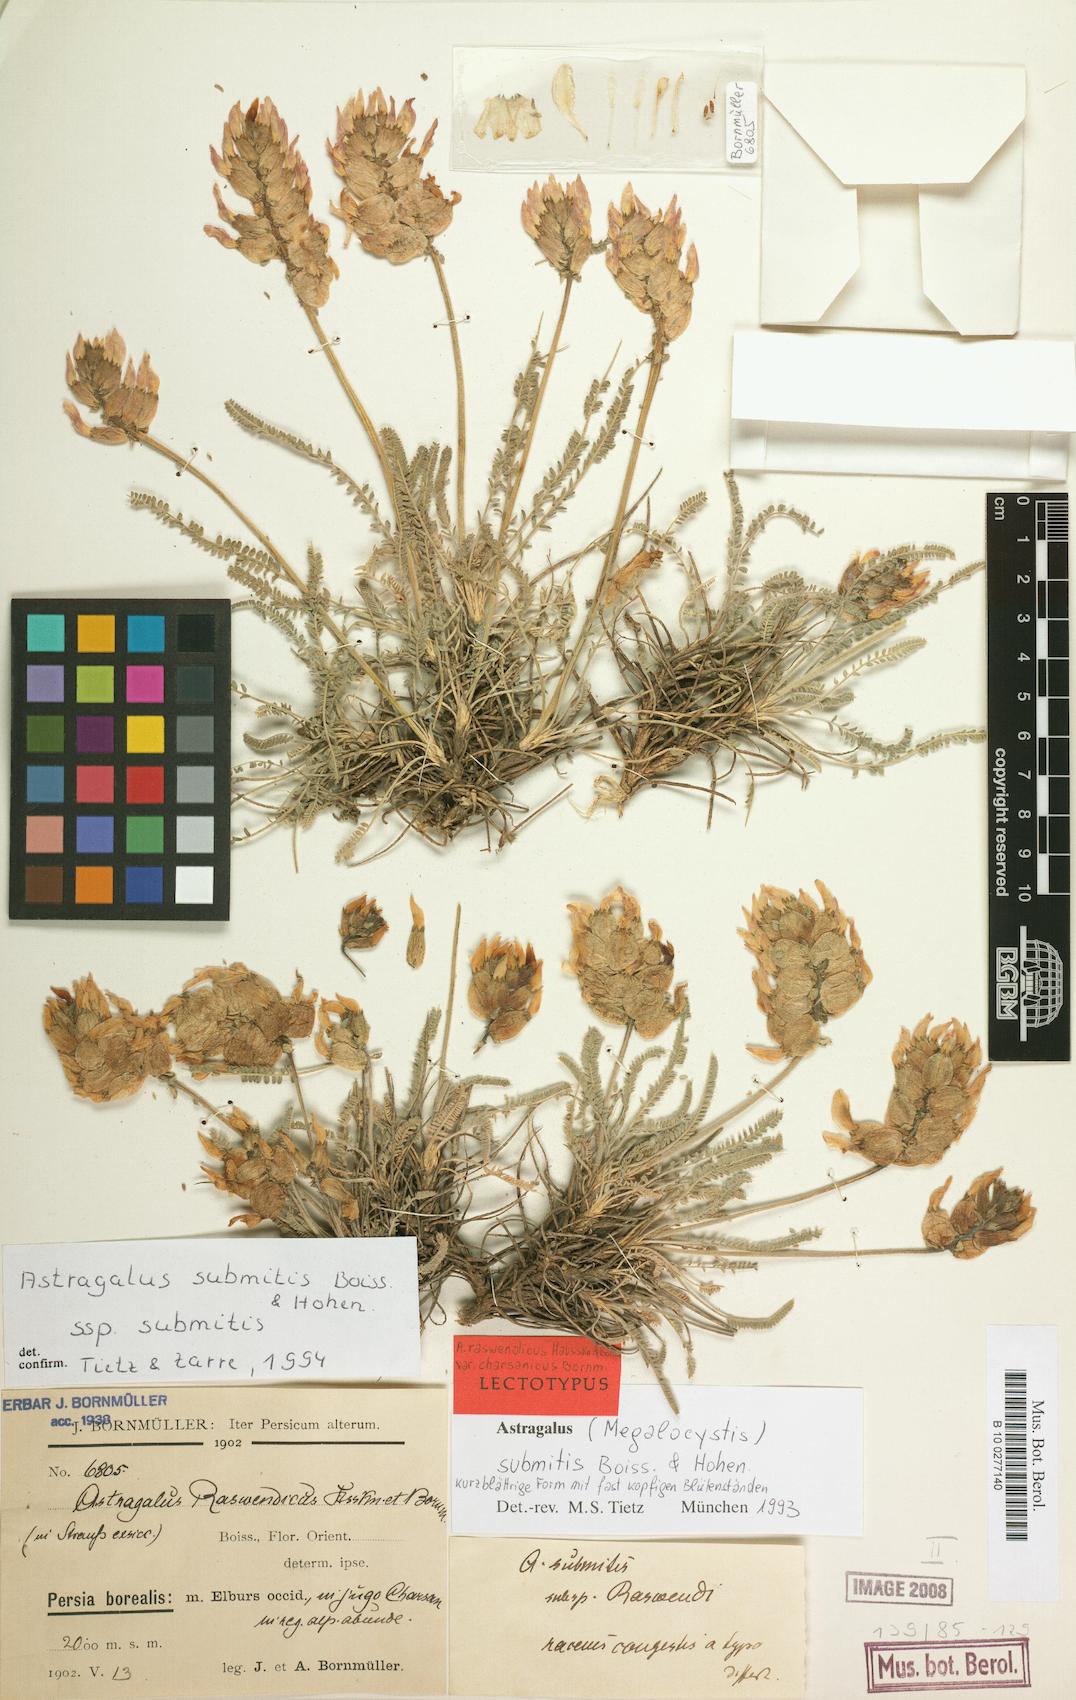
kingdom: Plantae
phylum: Tracheophyta
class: Magnoliopsida
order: Fabales
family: Fabaceae
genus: Astragalus
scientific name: Astragalus submitis
